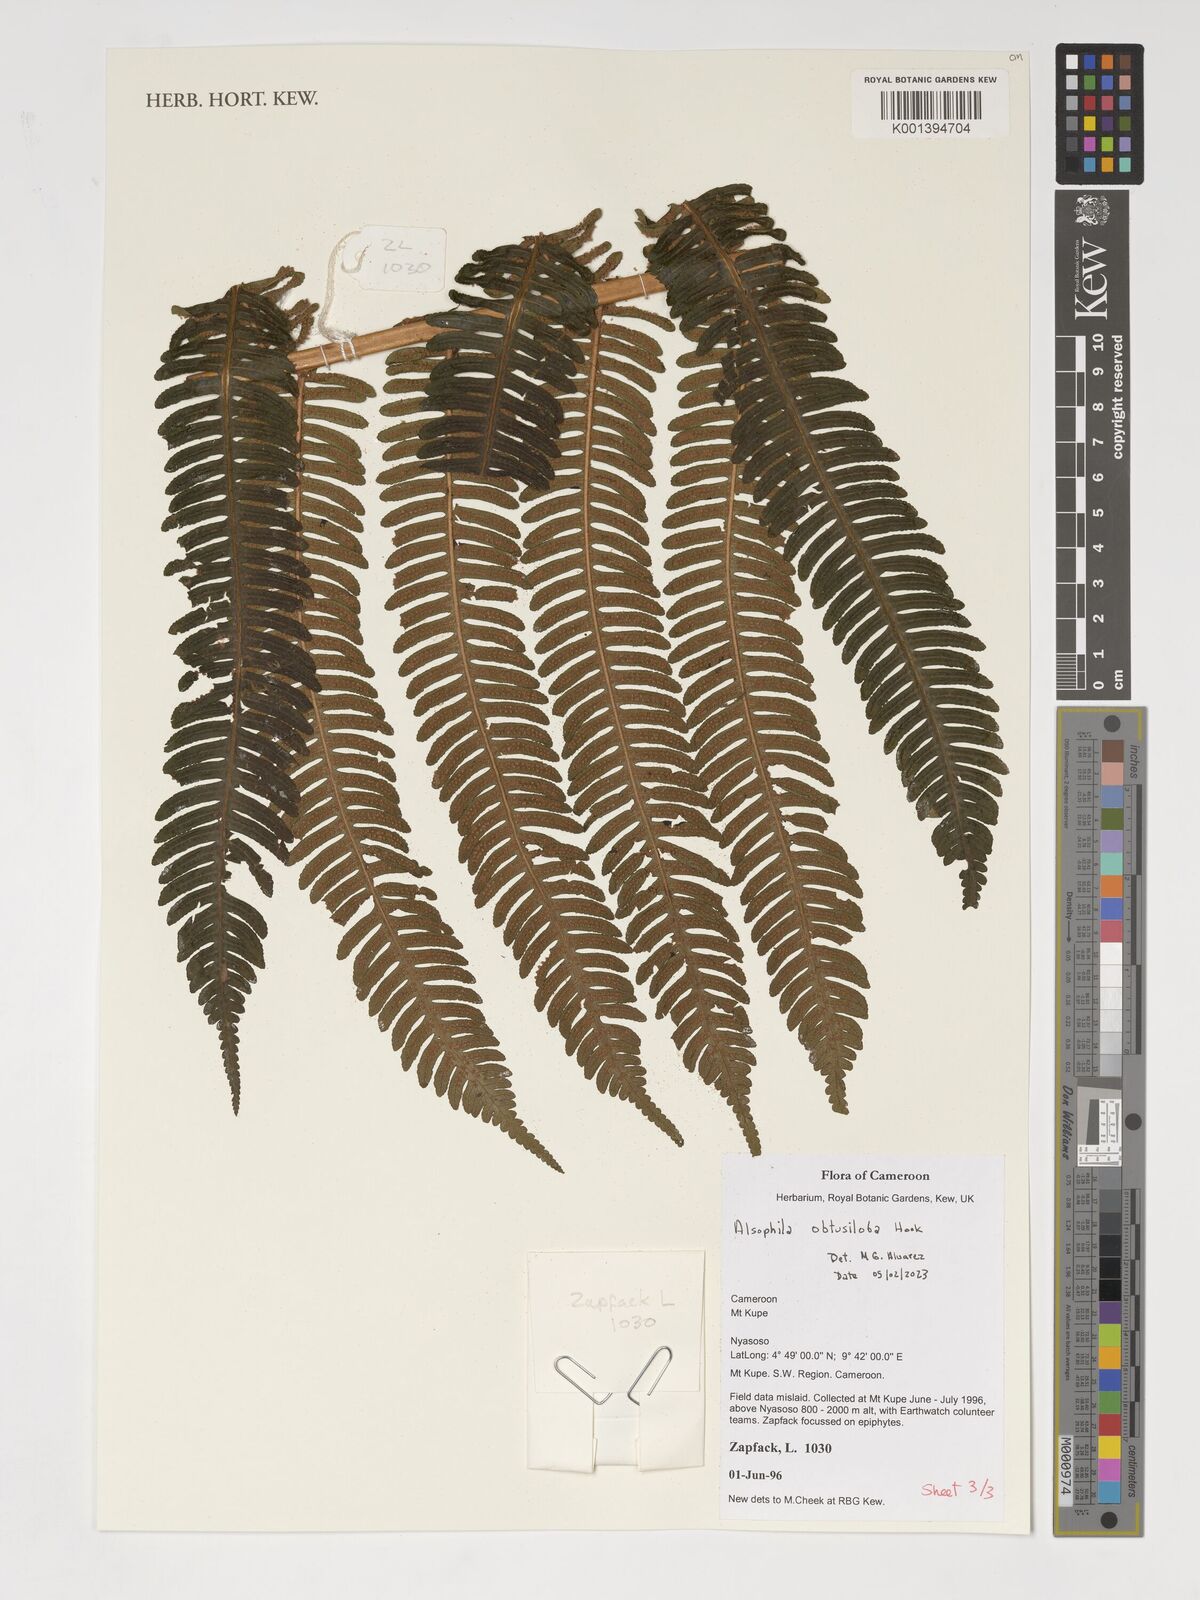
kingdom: Plantae
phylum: Tracheophyta
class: Polypodiopsida
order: Cyatheales
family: Cyatheaceae
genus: Alsophila
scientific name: Alsophila obtusiloba
